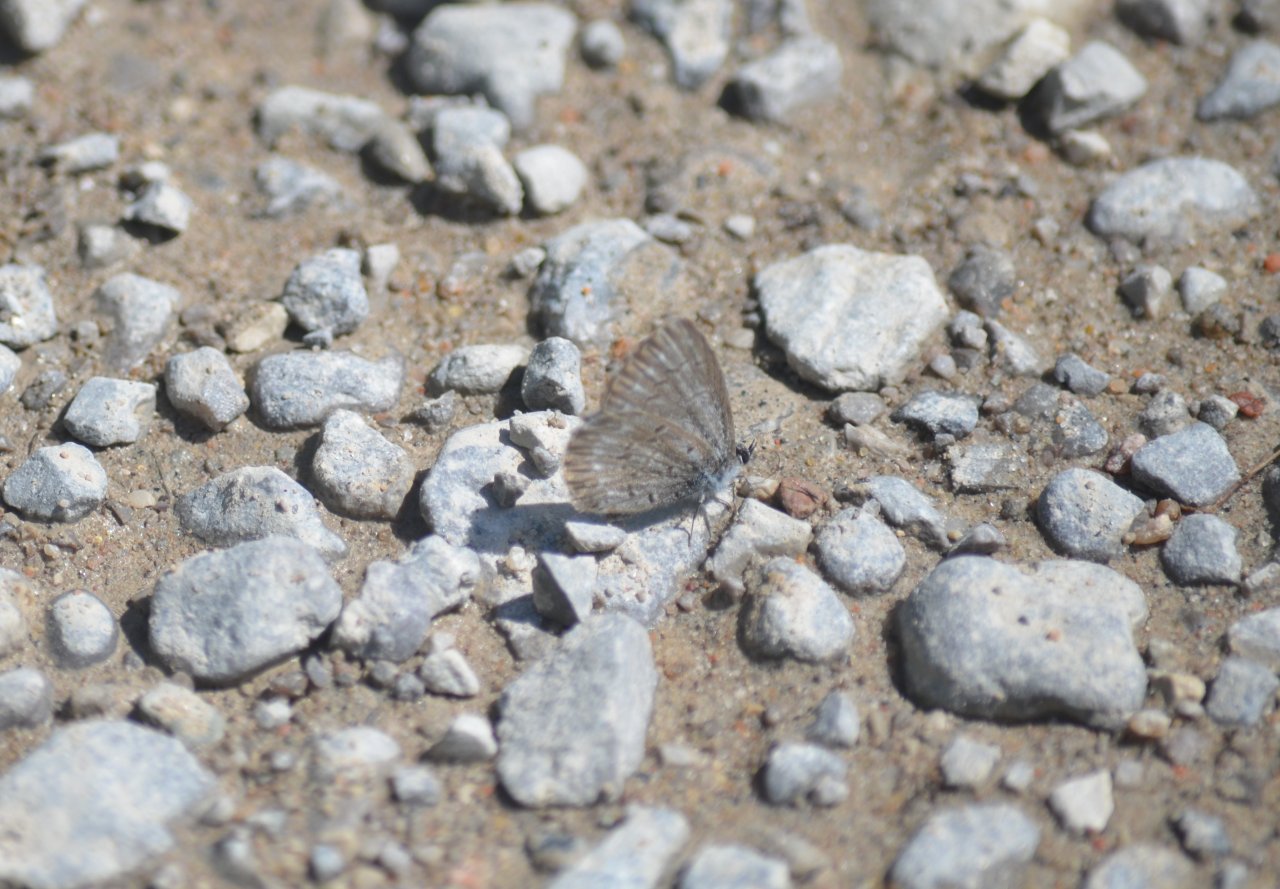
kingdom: Animalia
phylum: Arthropoda
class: Insecta
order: Lepidoptera
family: Lycaenidae
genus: Celastrina
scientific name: Celastrina
